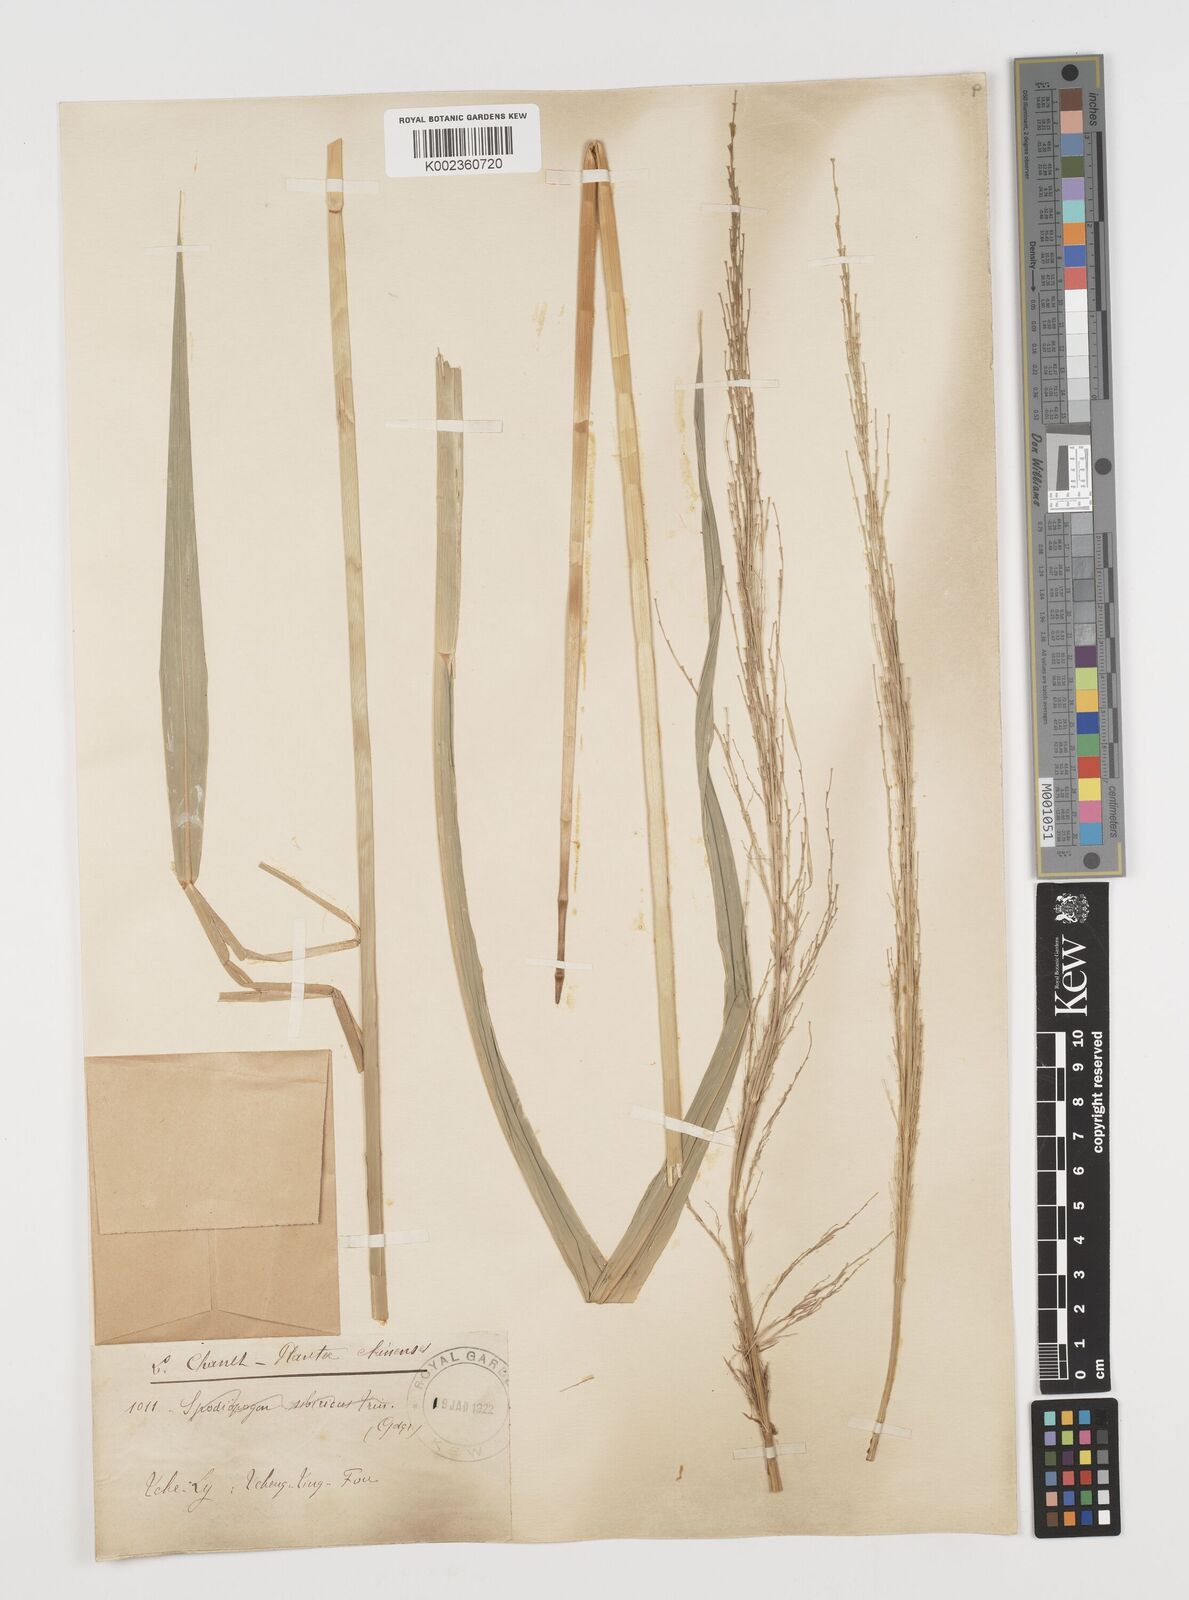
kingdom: Plantae
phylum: Tracheophyta
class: Liliopsida
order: Poales
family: Poaceae
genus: Zizania
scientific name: Zizania latifolia
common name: Manchurian wildrice
